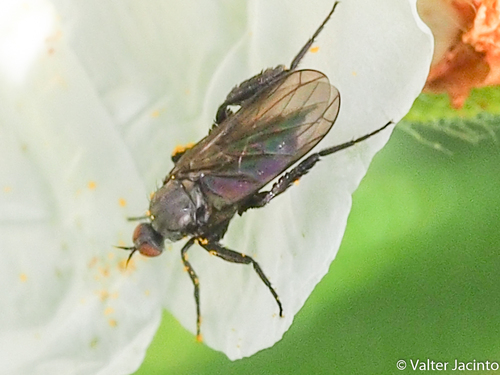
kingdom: Animalia
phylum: Arthropoda
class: Insecta
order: Diptera
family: Empididae
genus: Empis
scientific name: Empis
